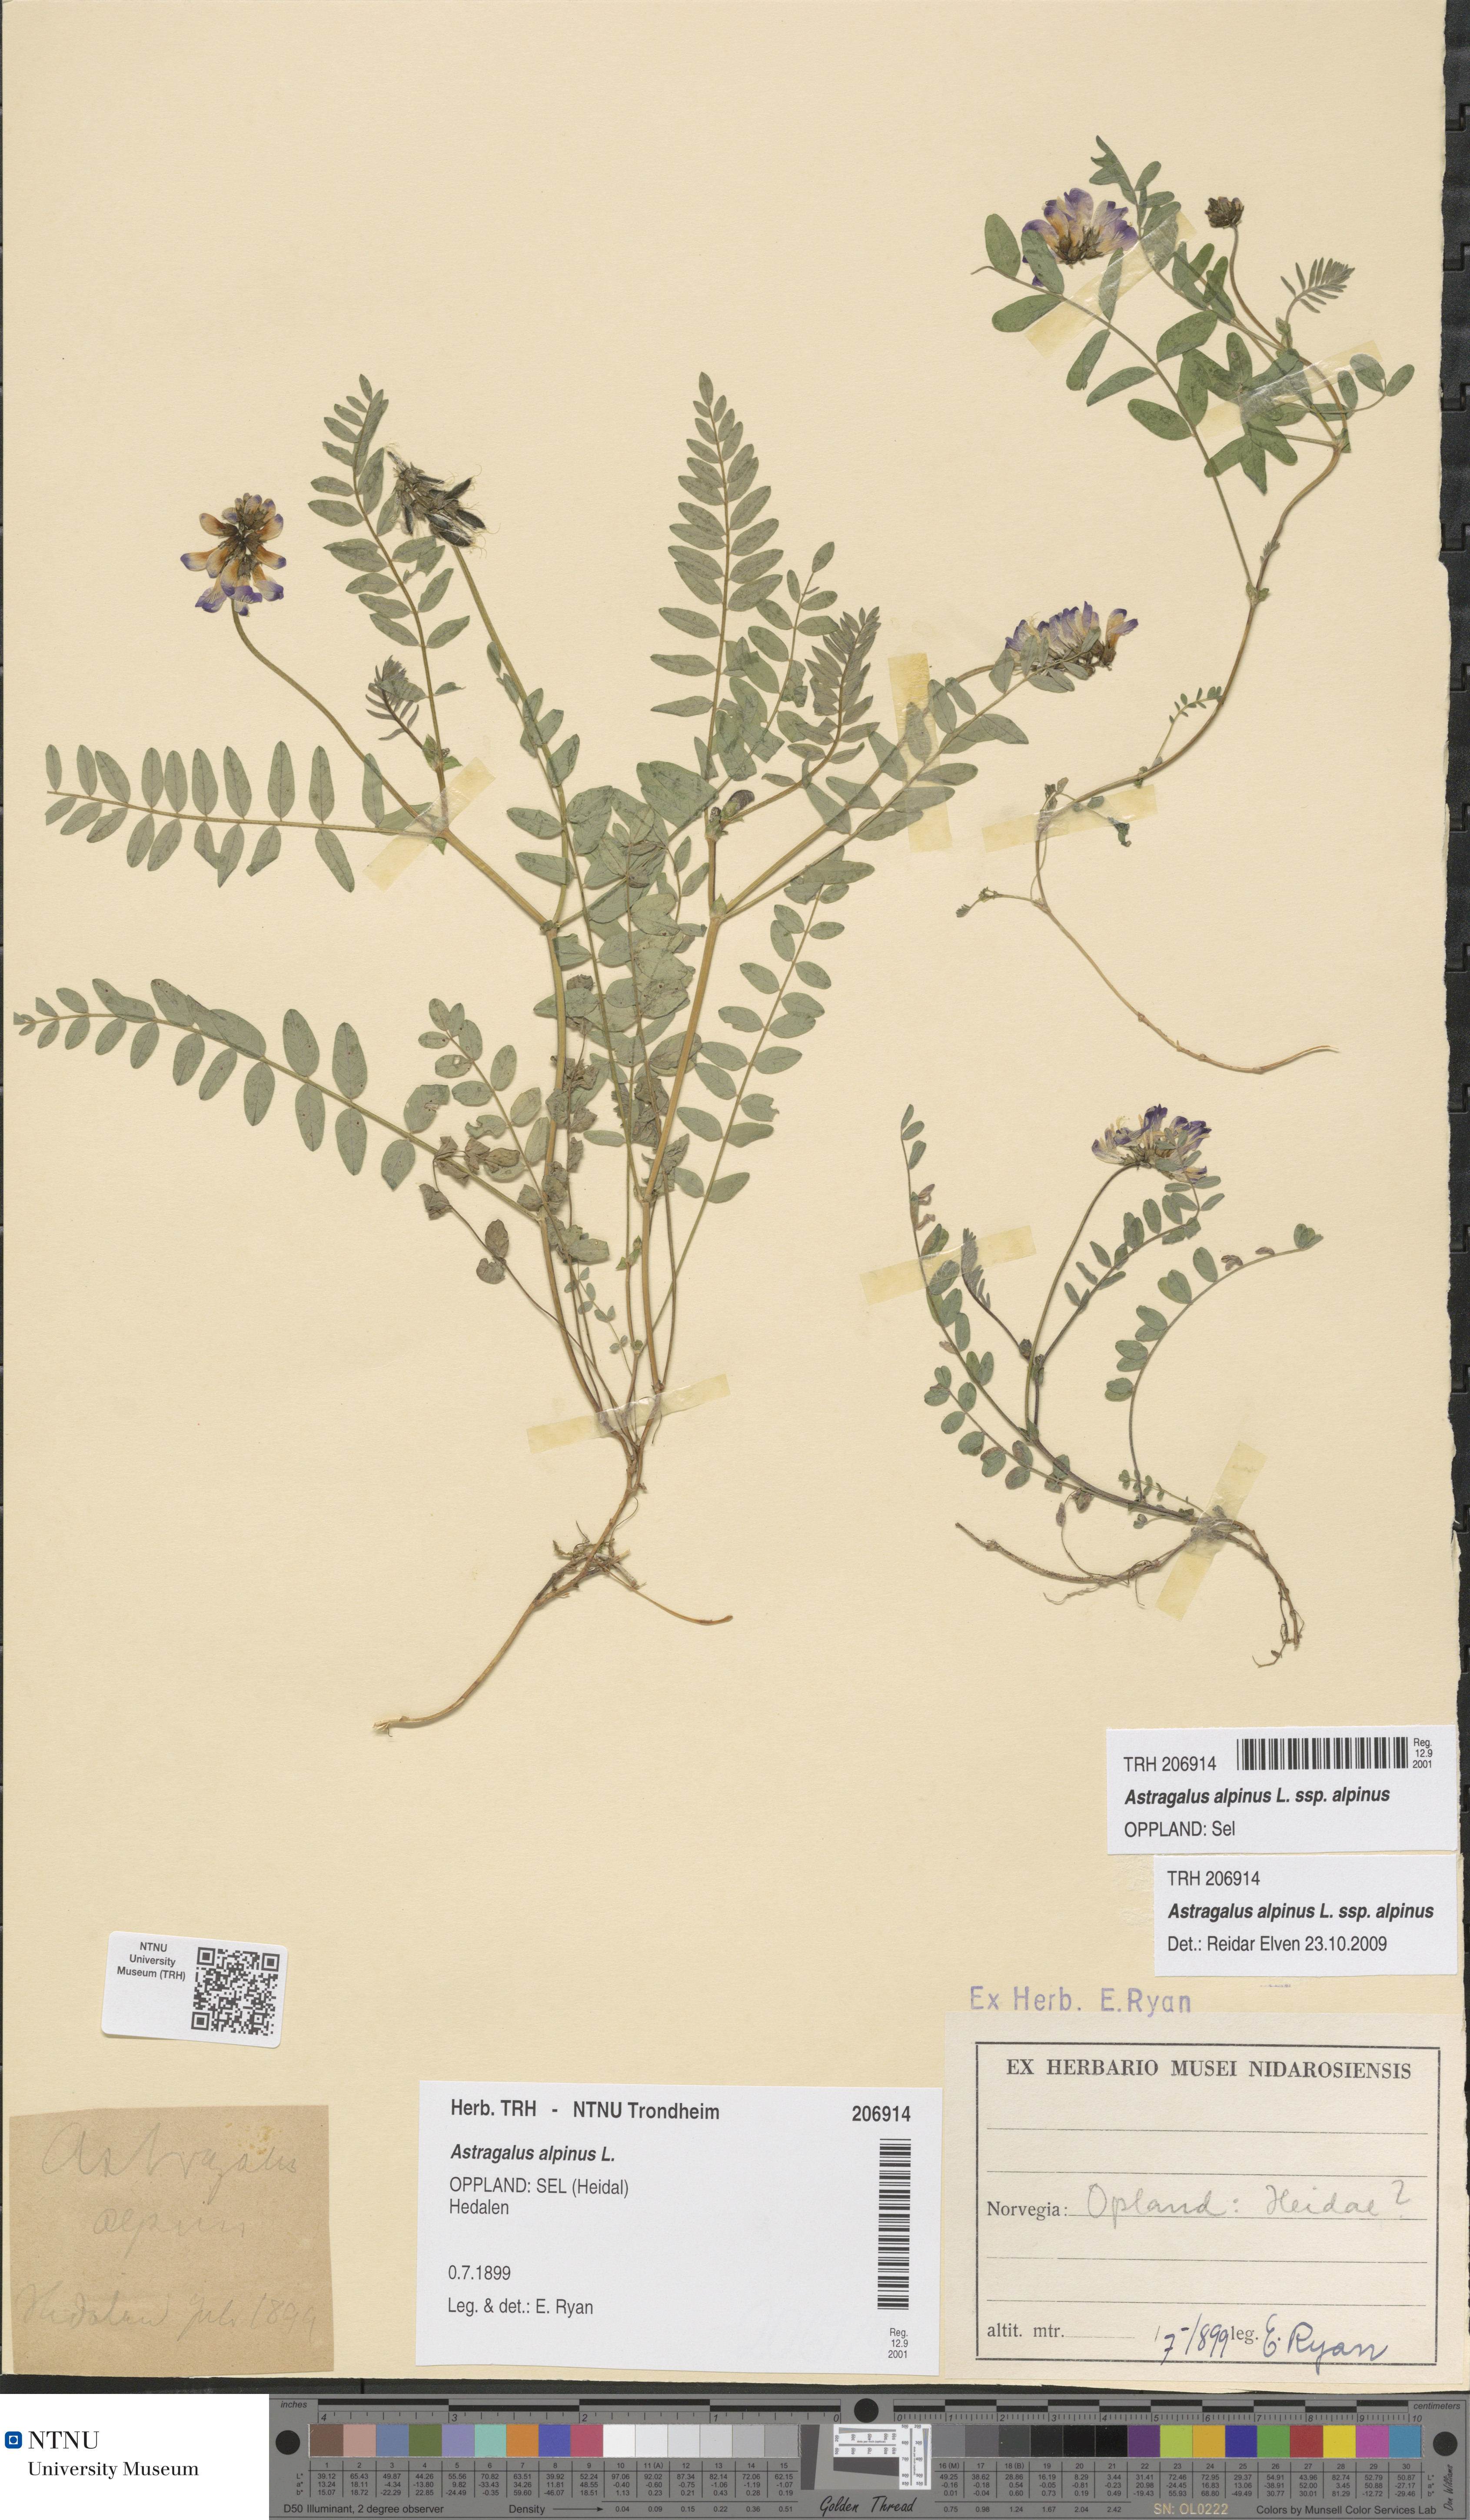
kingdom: Plantae
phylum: Tracheophyta
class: Magnoliopsida
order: Fabales
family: Fabaceae
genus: Astragalus
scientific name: Astragalus alpinus
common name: Alpine milk-vetch
